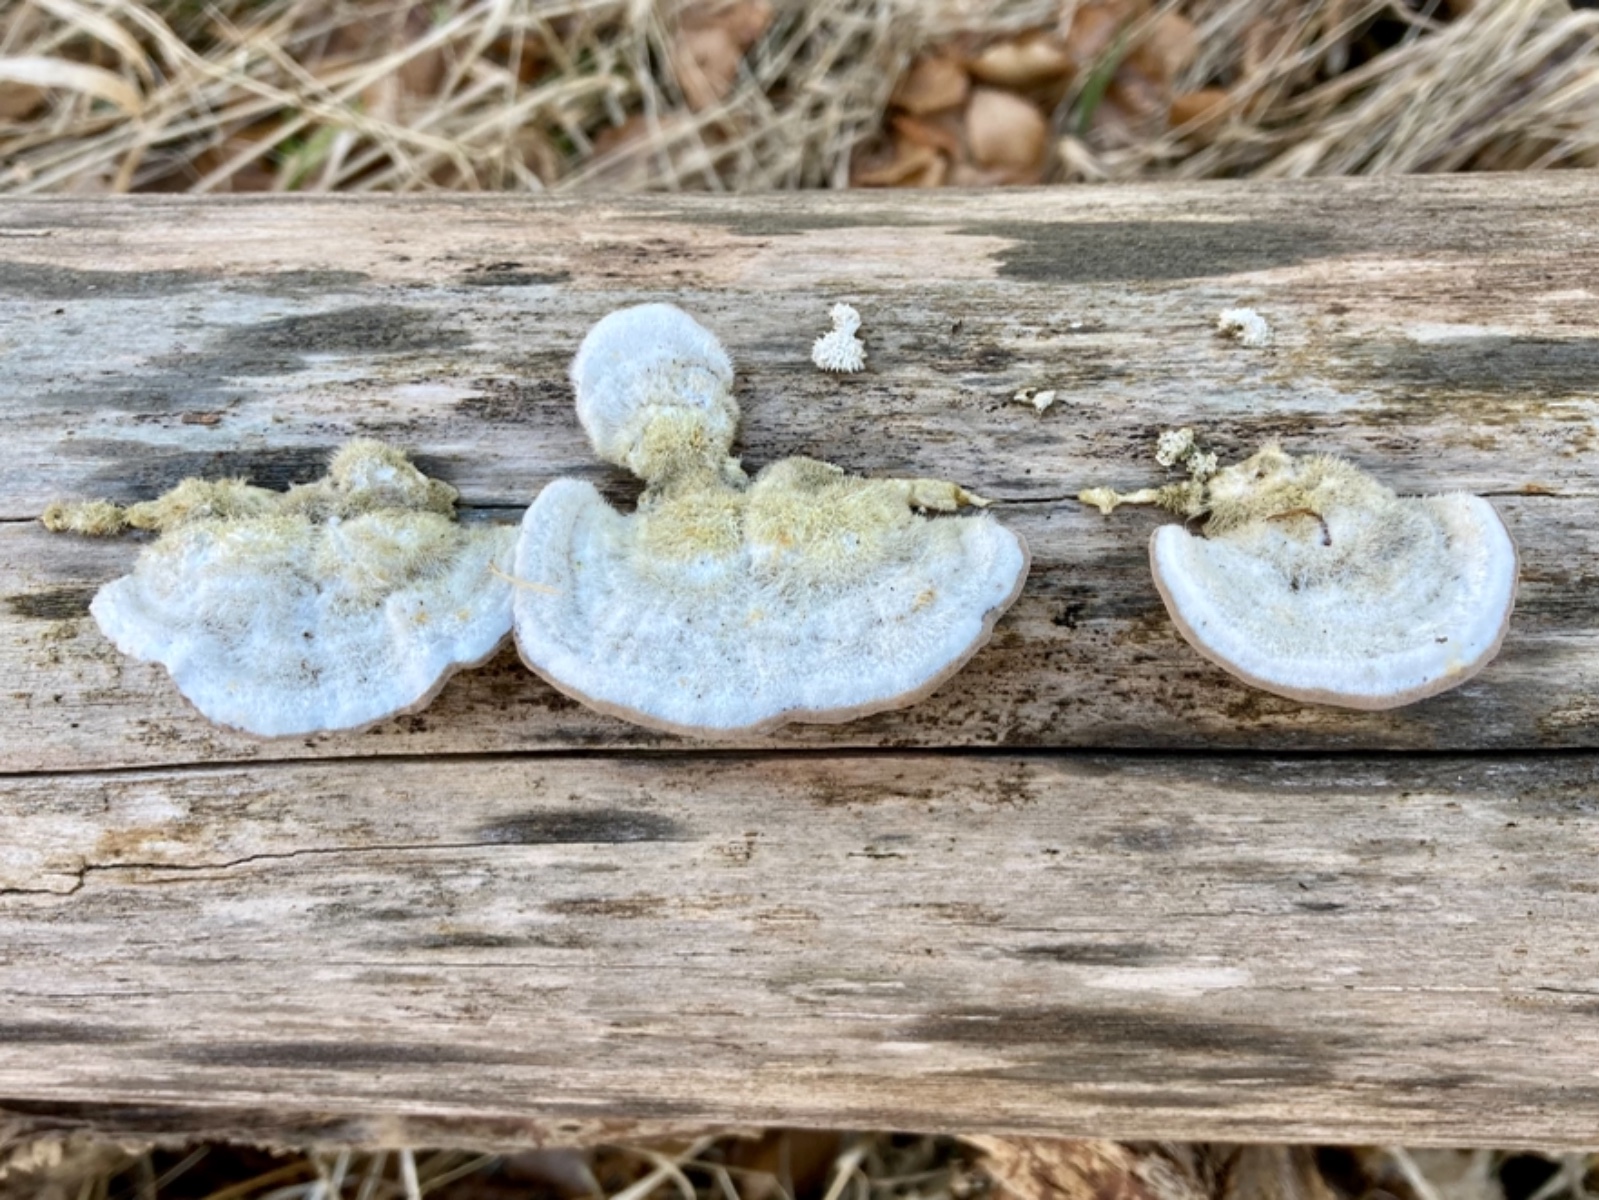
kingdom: Fungi
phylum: Basidiomycota
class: Agaricomycetes
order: Polyporales
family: Polyporaceae
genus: Trametes
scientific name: Trametes hirsuta
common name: håret læderporesvamp
